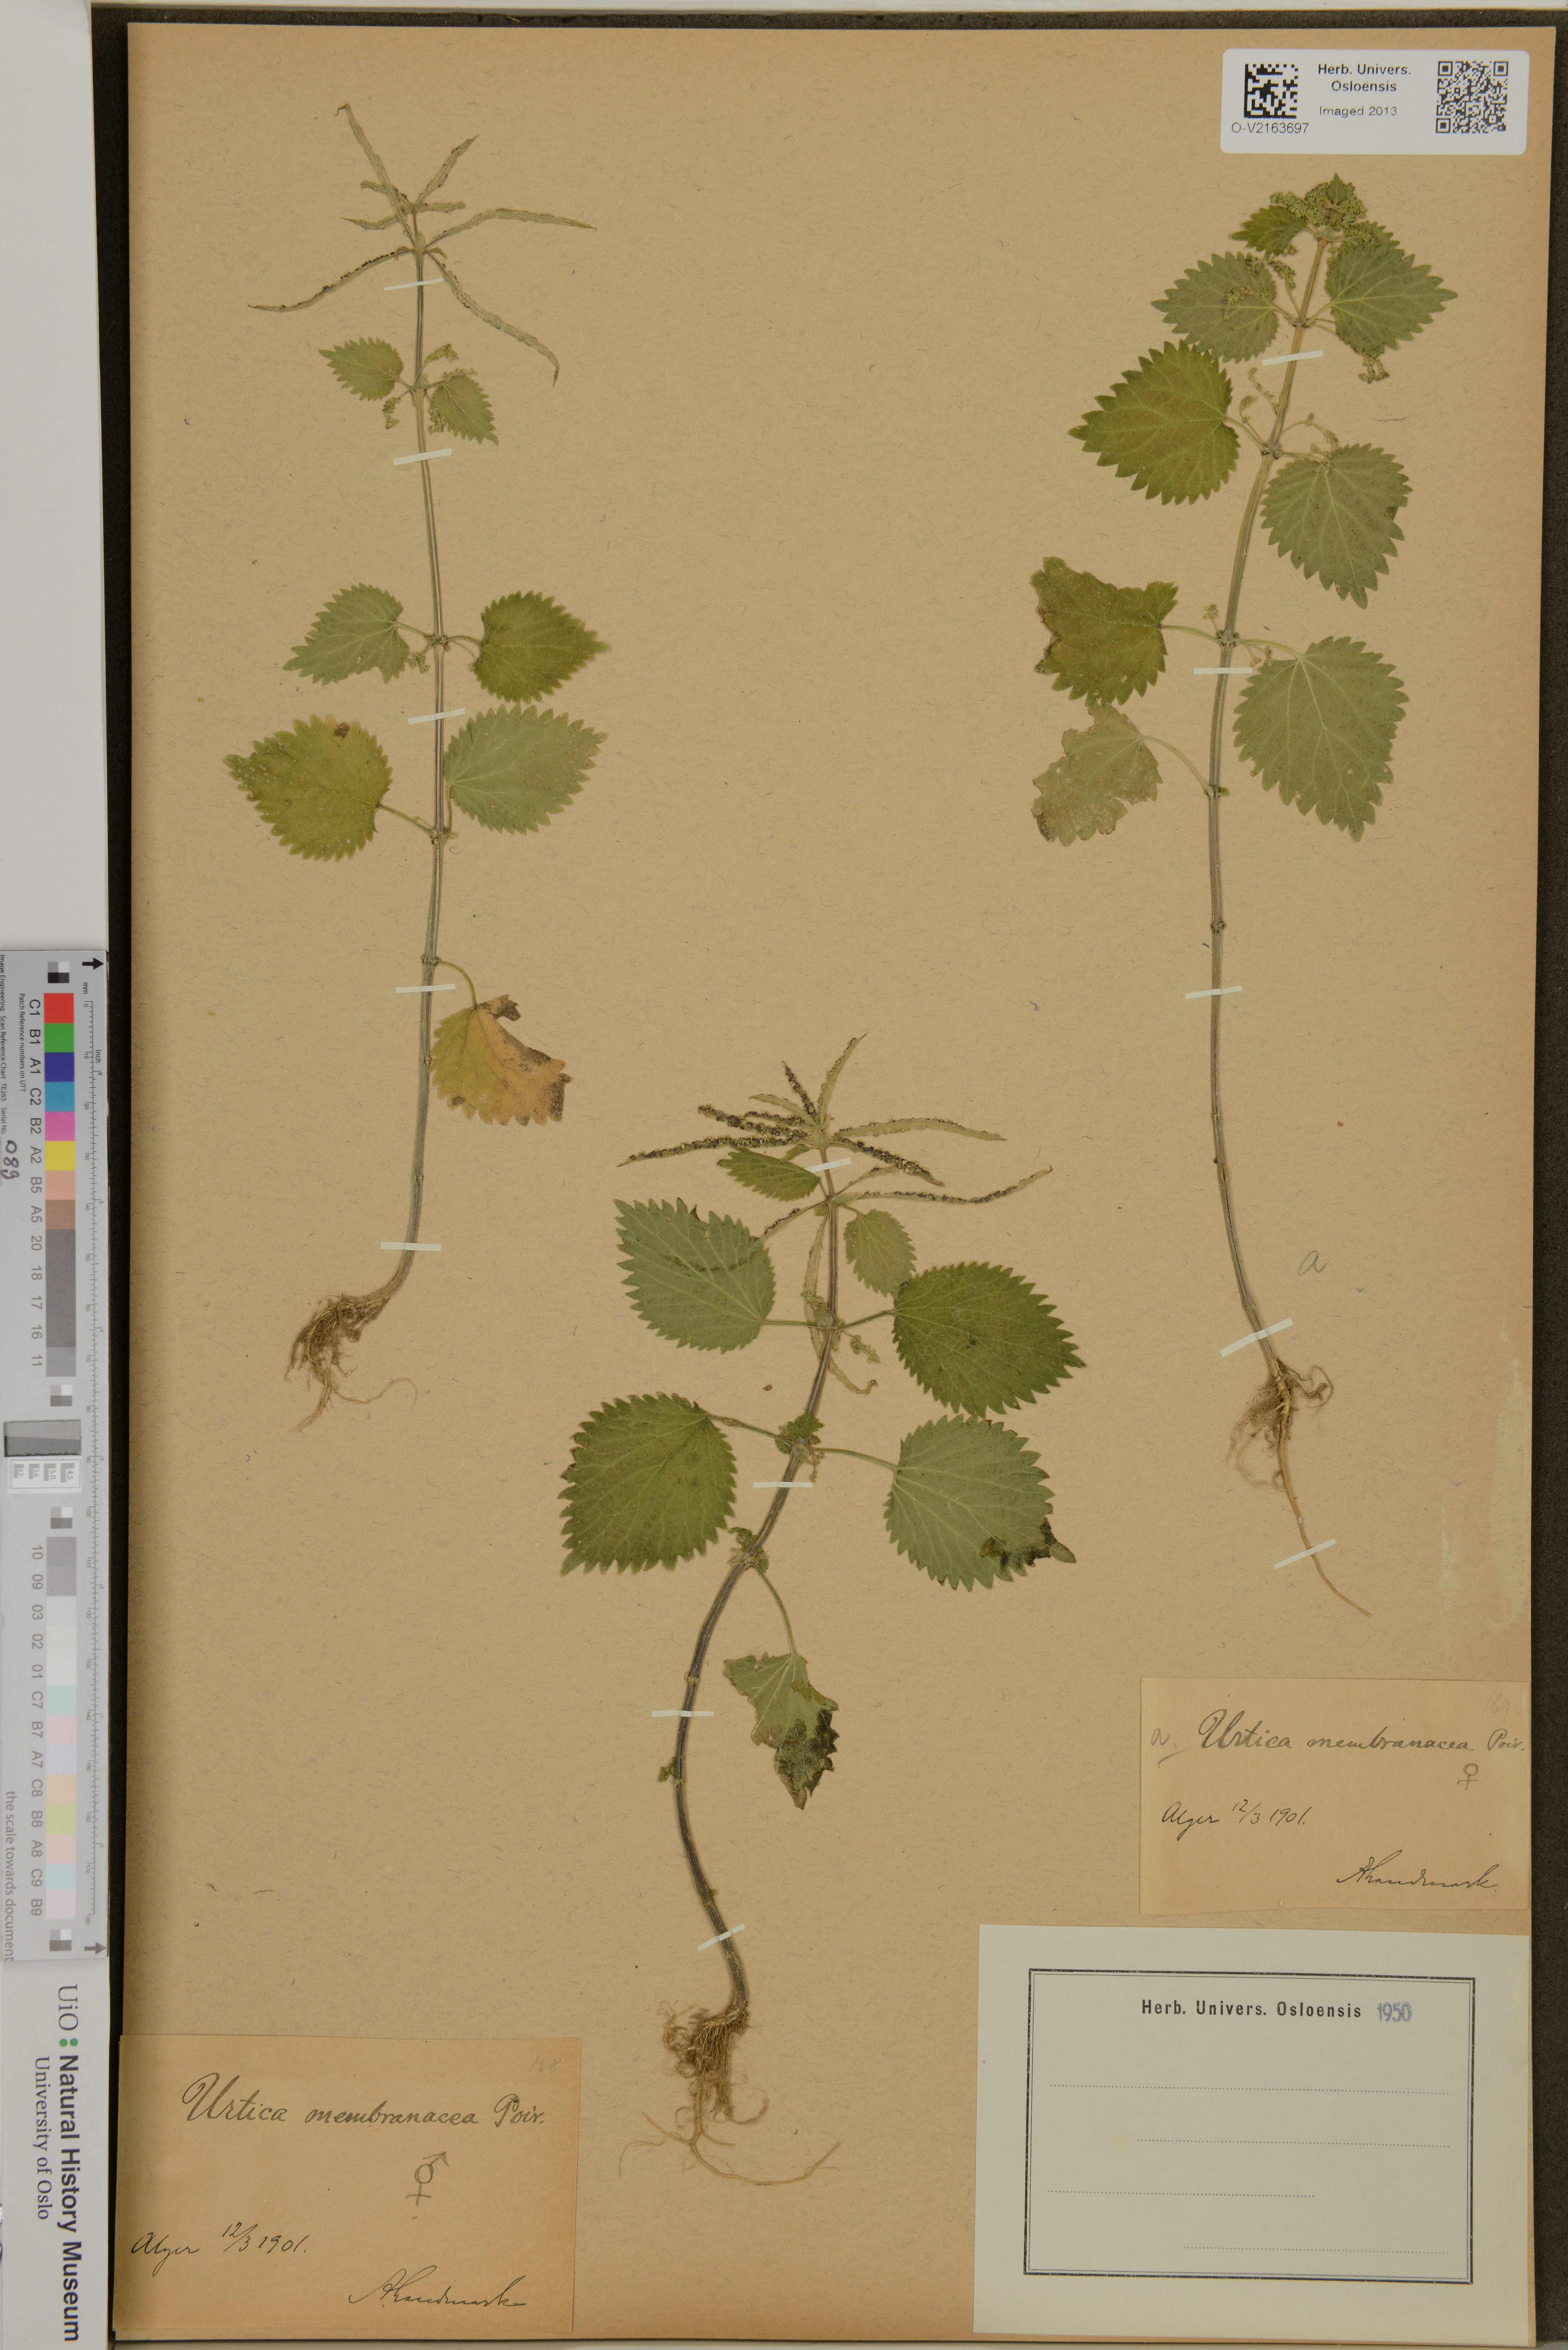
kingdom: Plantae
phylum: Tracheophyta
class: Magnoliopsida
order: Rosales
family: Urticaceae
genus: Urtica
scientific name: Urtica membranacea
